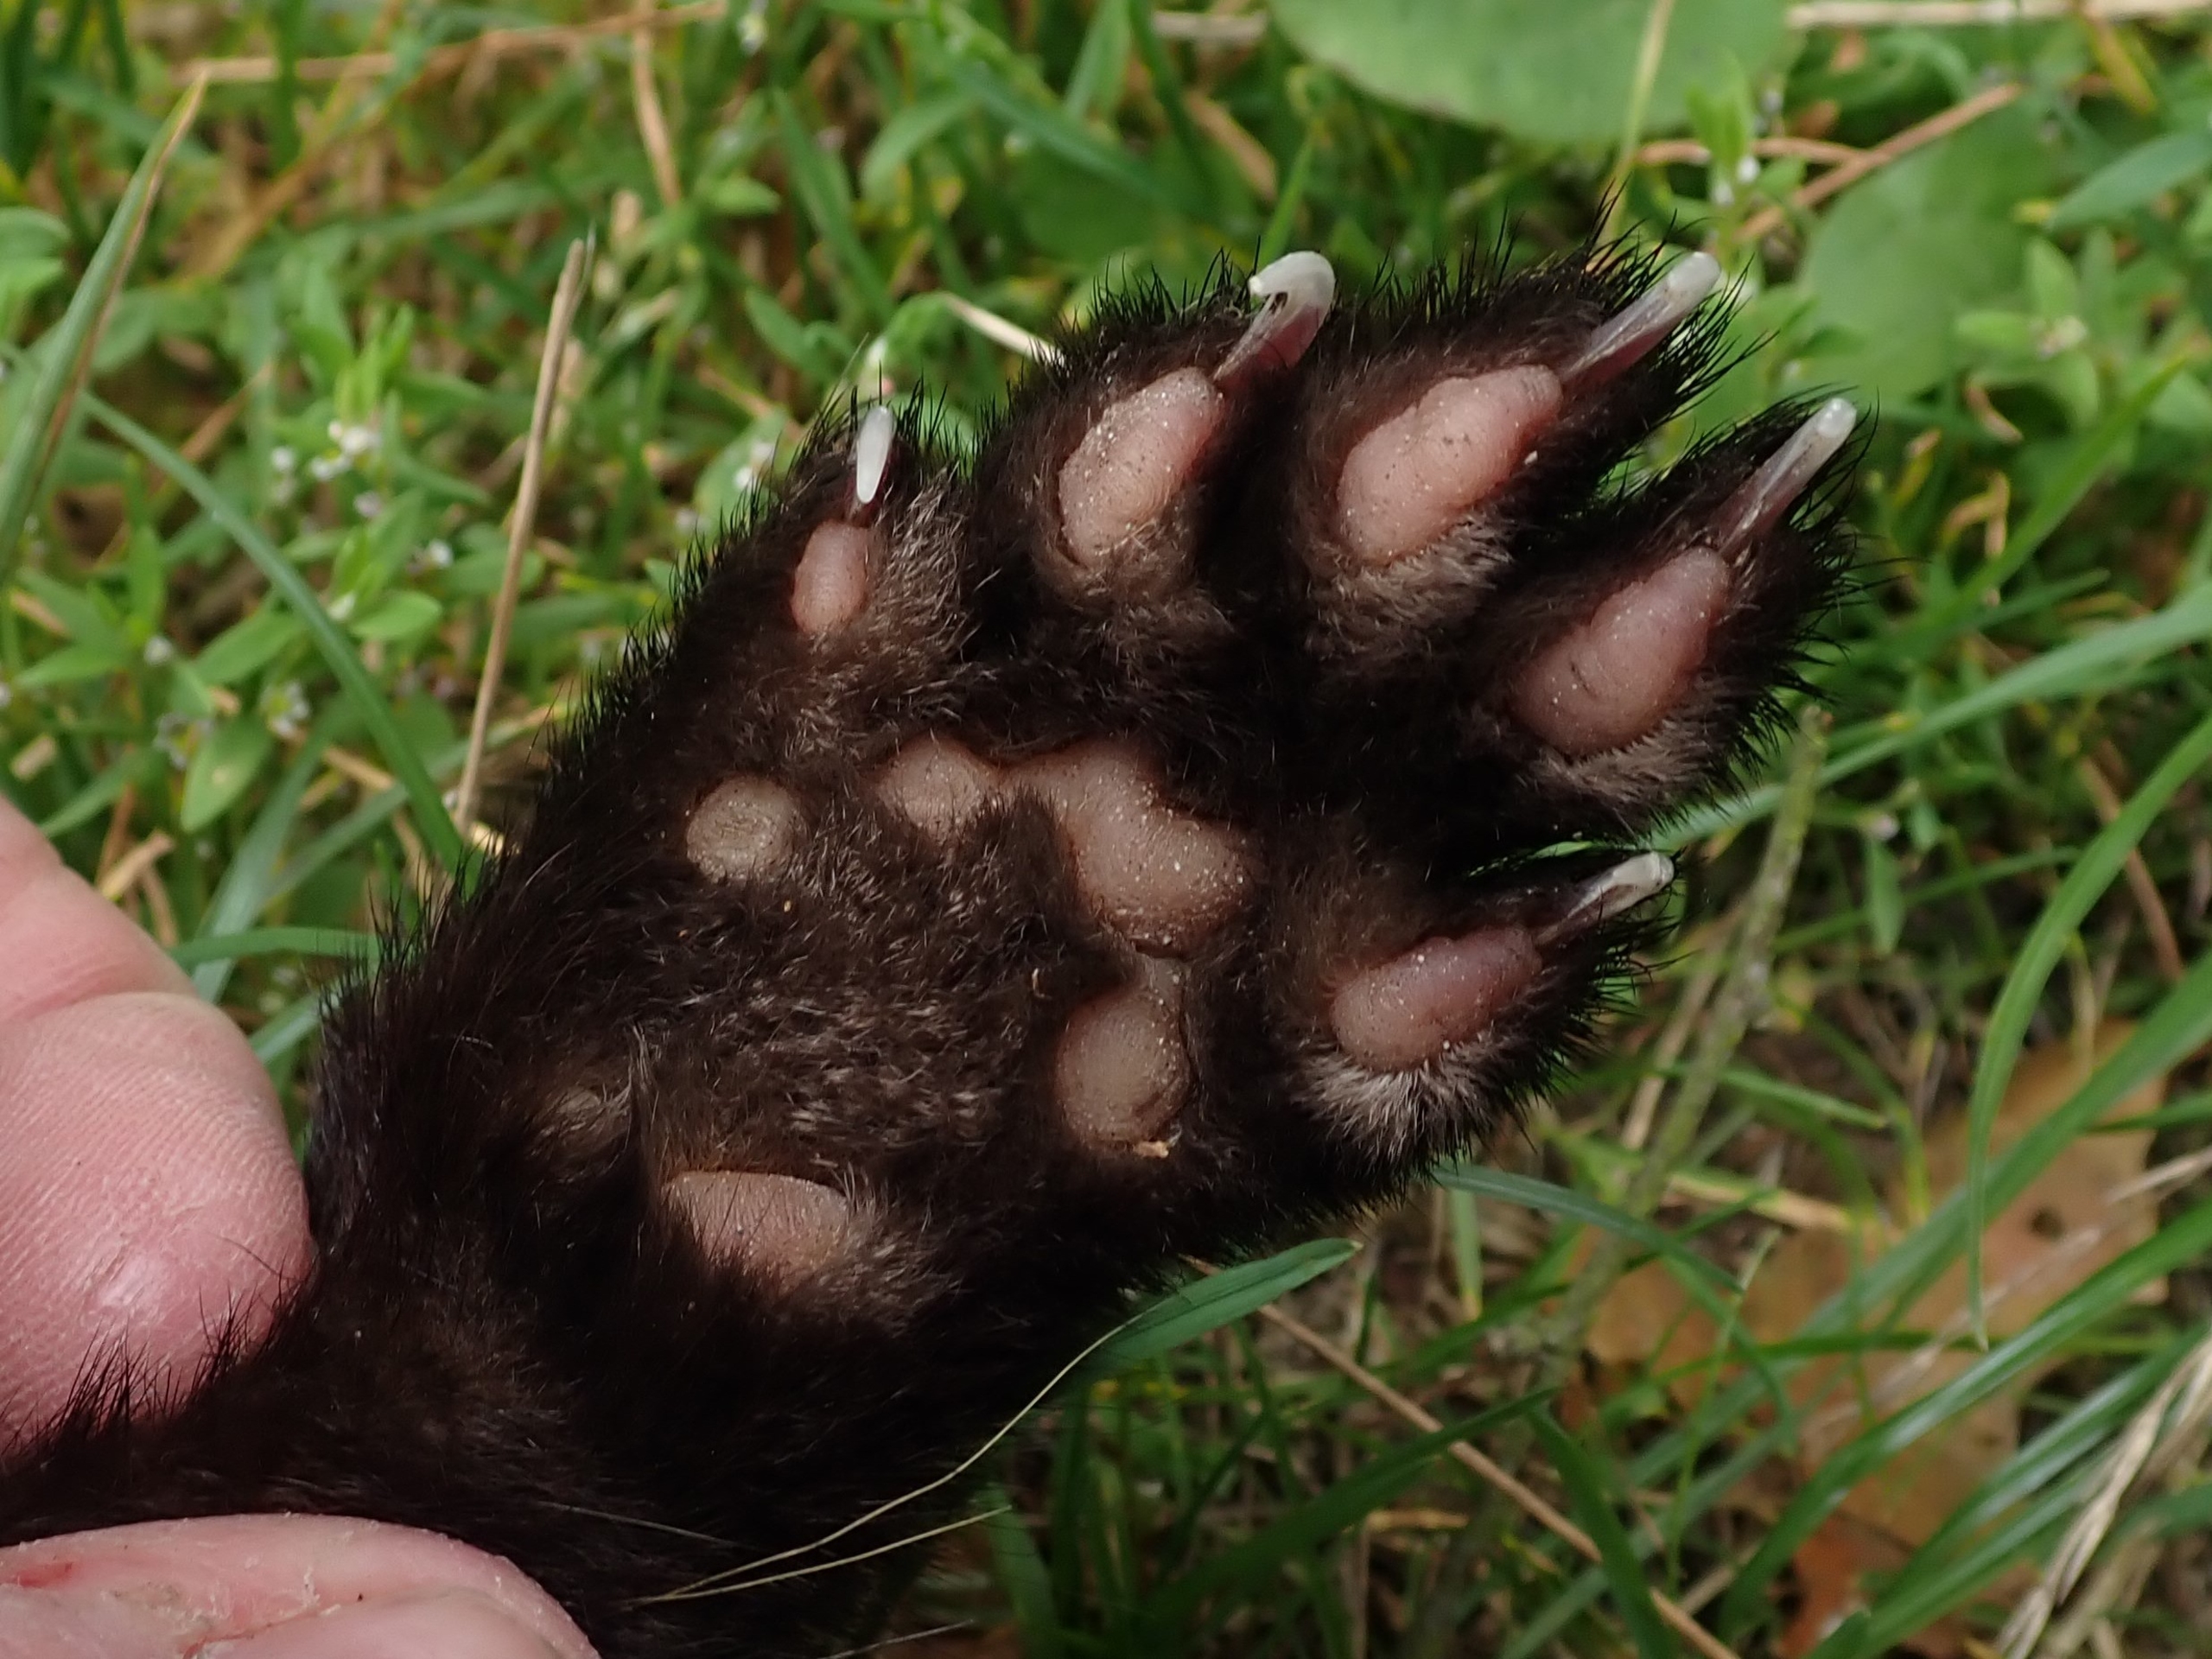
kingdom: Animalia
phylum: Chordata
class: Mammalia
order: Carnivora
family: Mustelidae
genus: Martes
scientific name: Martes martes
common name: Skovmår
